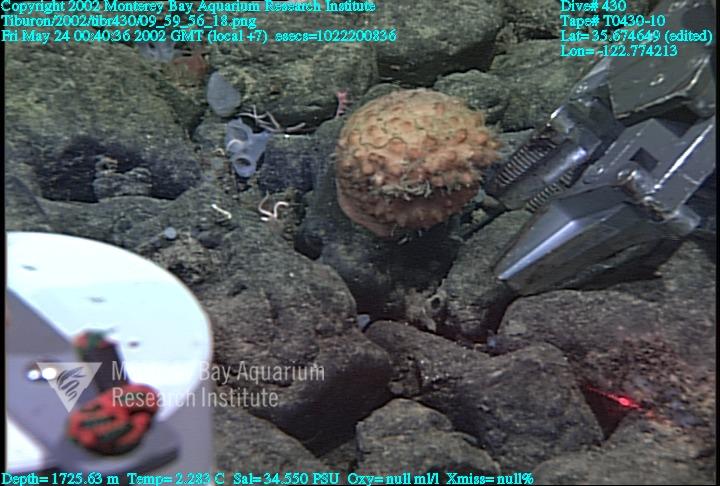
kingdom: Animalia
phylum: Porifera
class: Hexactinellida
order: Sceptrulophora
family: Farreidae
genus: Farrea
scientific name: Farrea occa
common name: Reversed glass sponge
